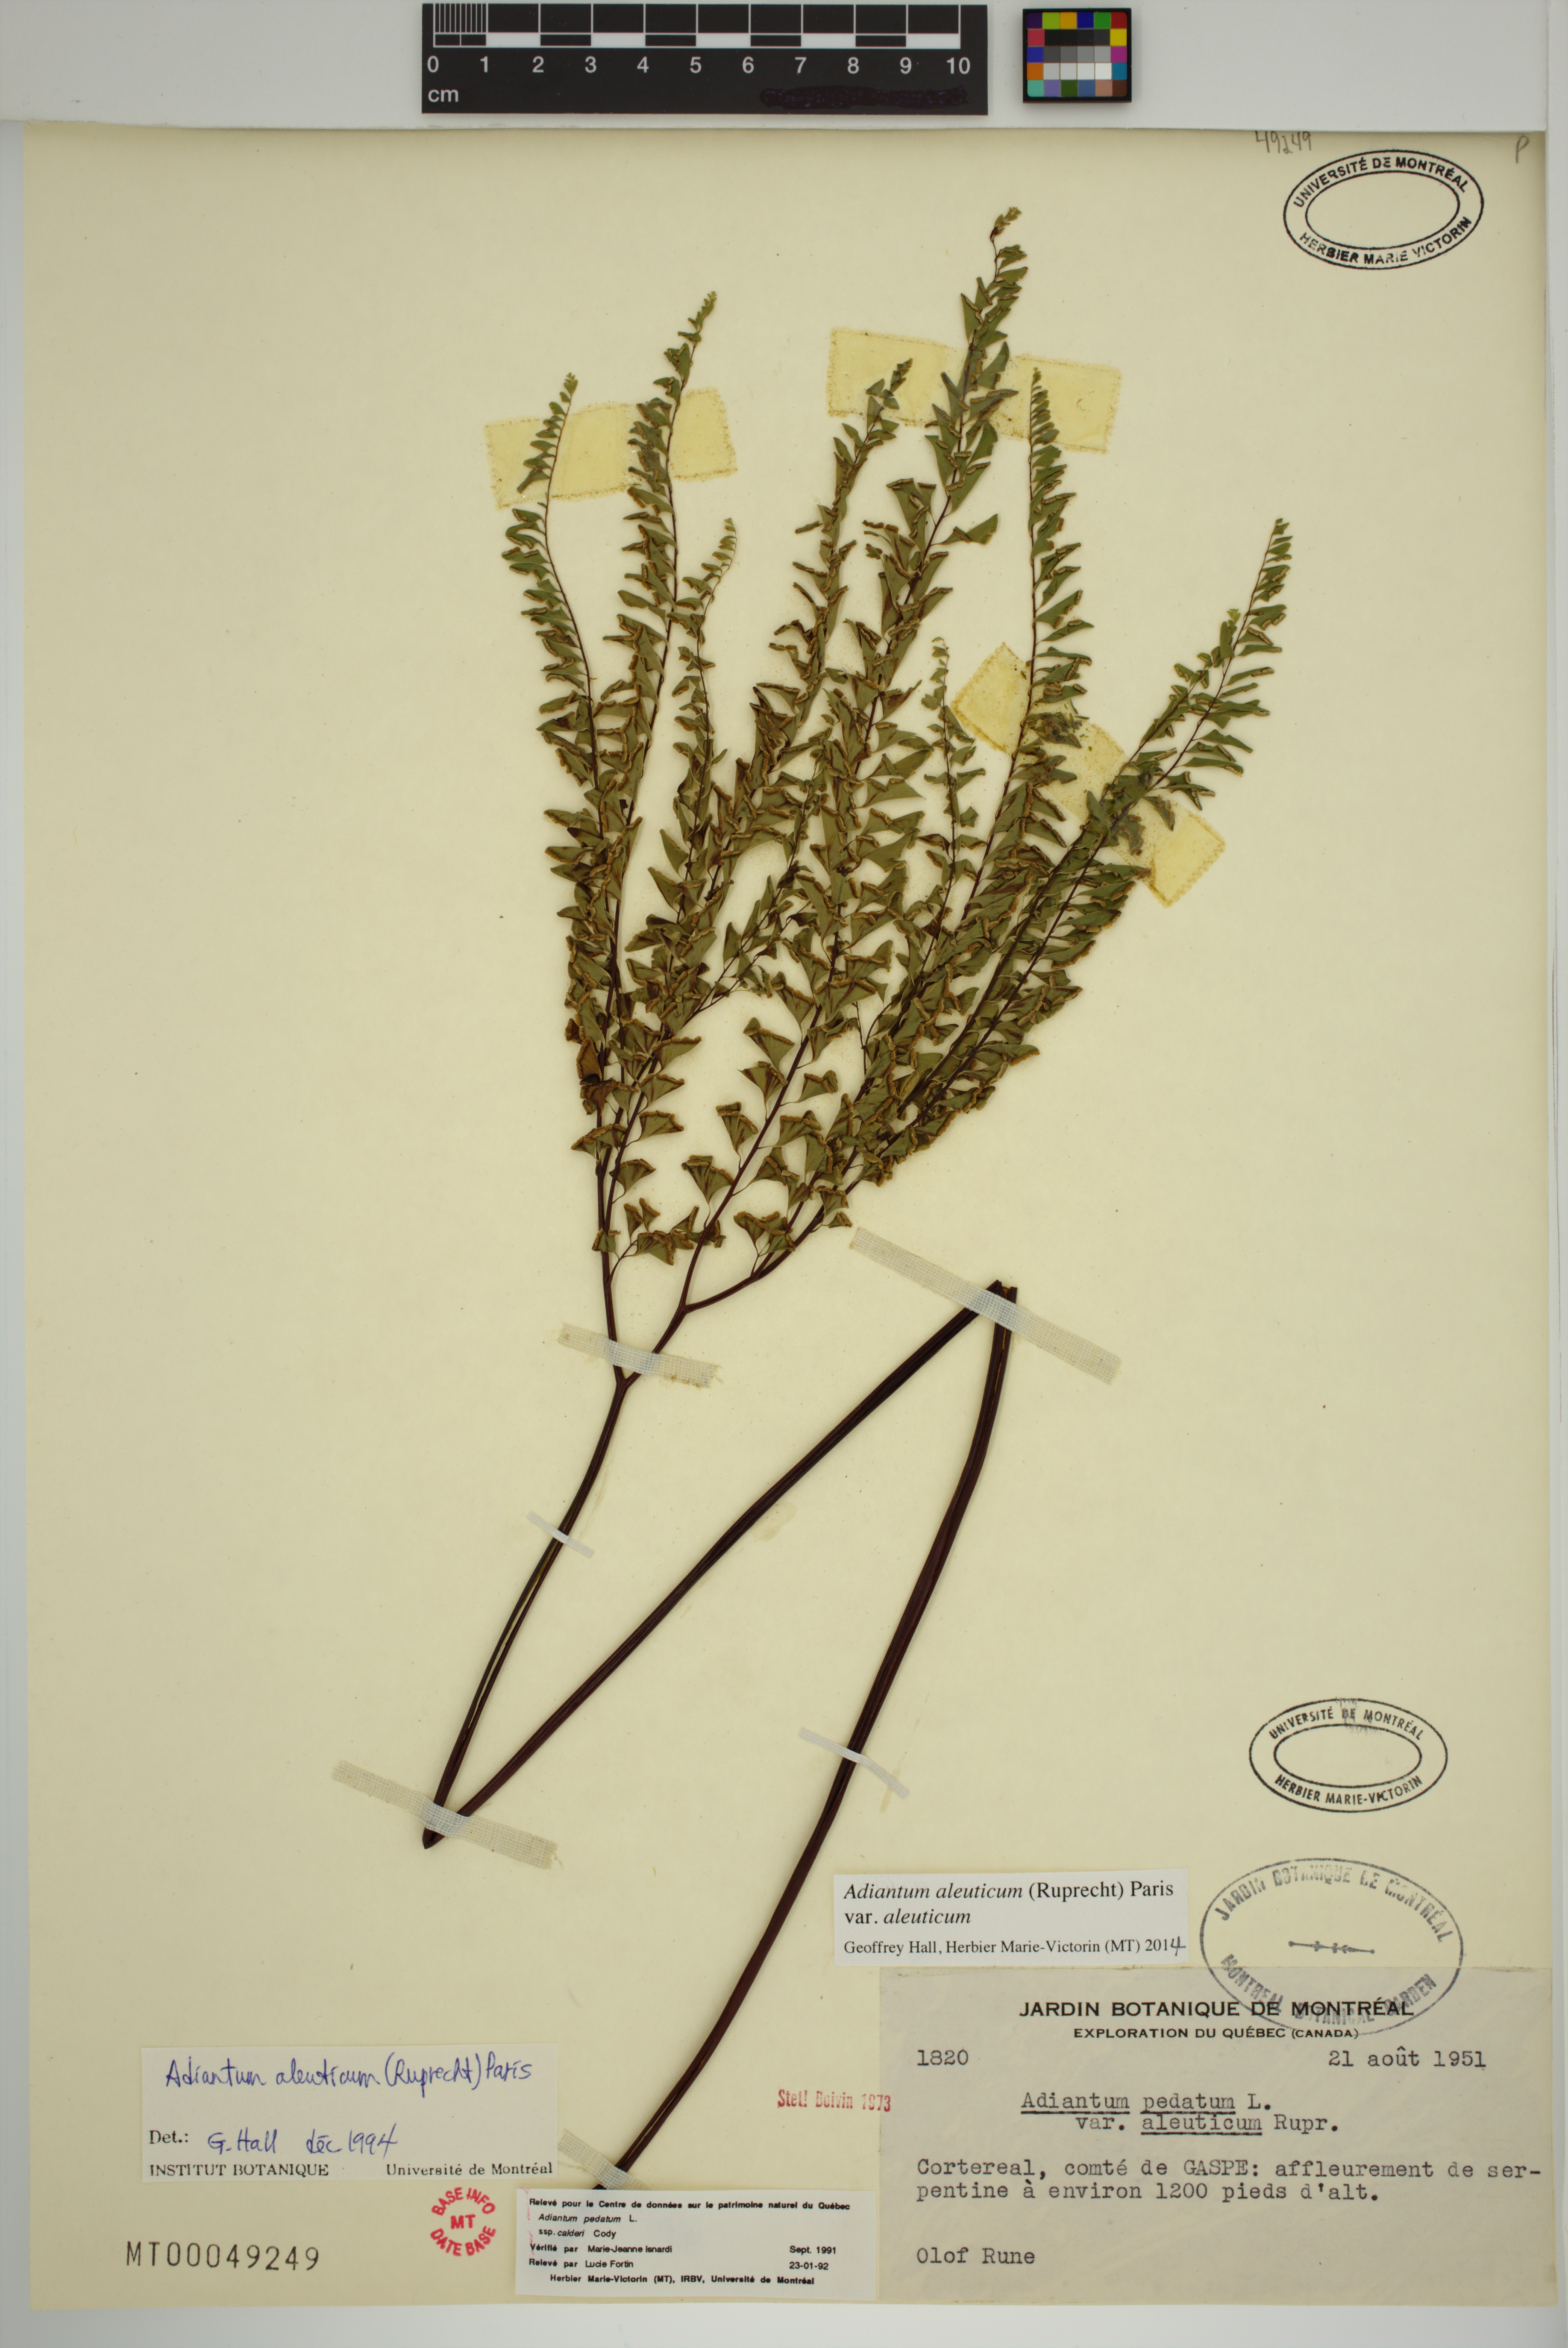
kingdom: Plantae
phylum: Tracheophyta
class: Polypodiopsida
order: Polypodiales
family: Pteridaceae
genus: Adiantum
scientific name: Adiantum aleuticum
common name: Aleutian maidenhair fern
